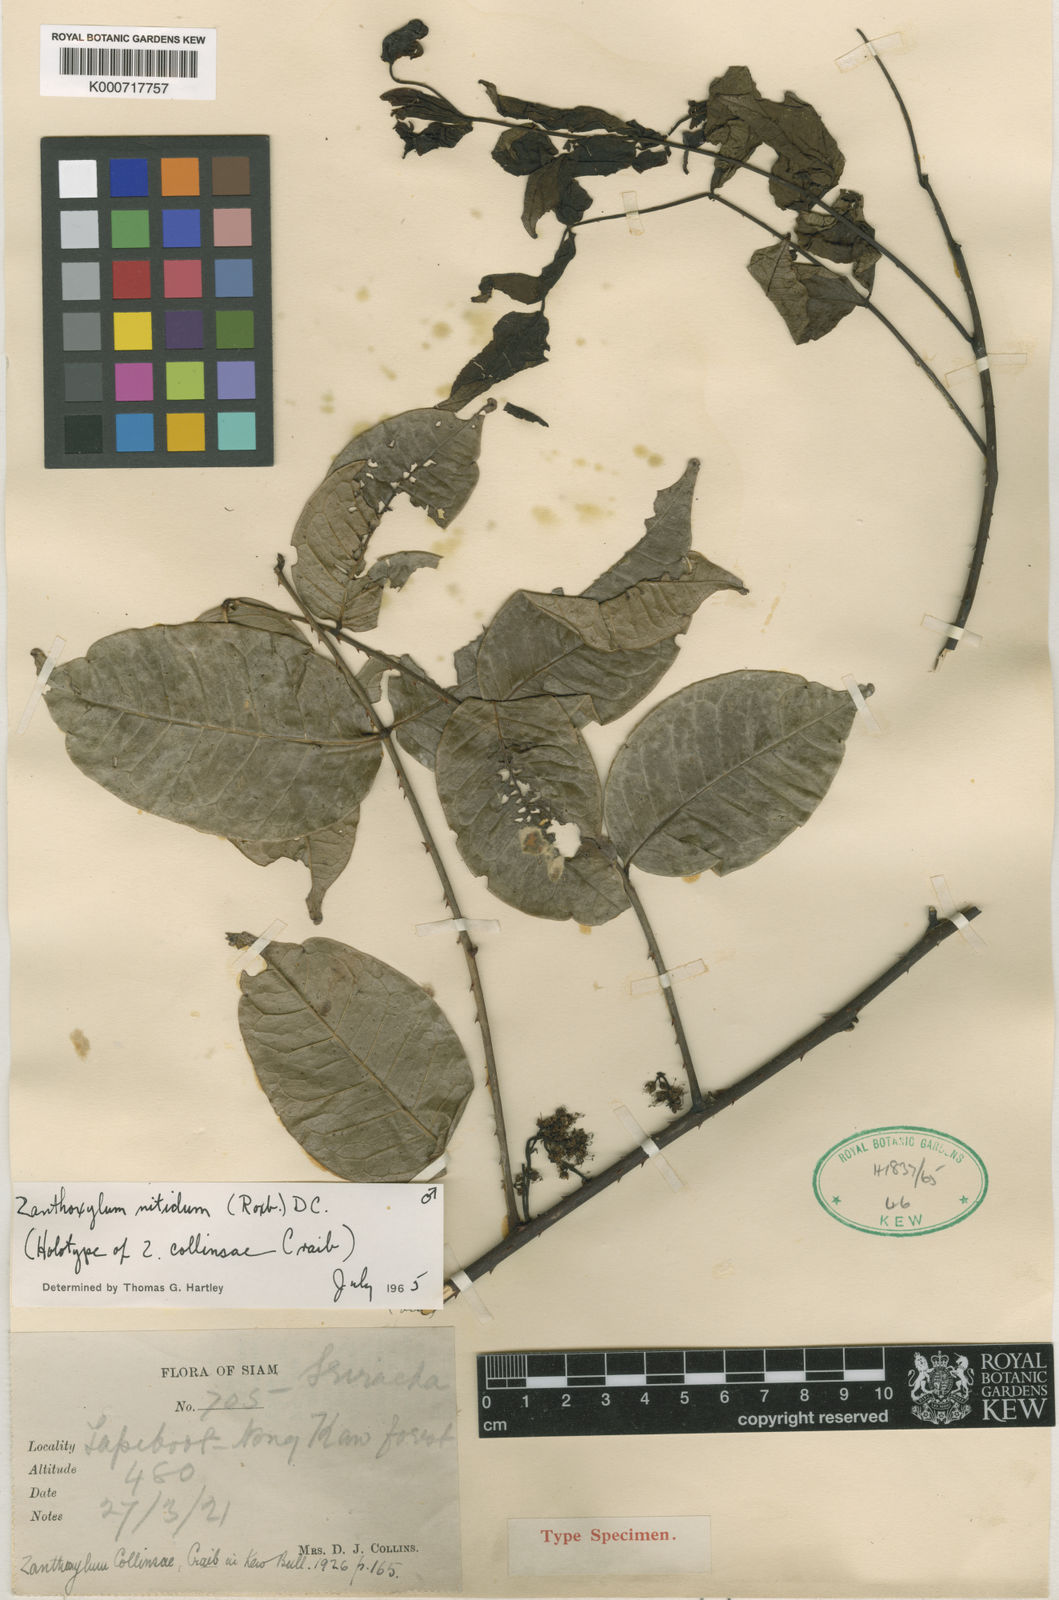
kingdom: Plantae
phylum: Tracheophyta
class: Magnoliopsida
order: Sapindales
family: Rutaceae
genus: Zanthoxylum
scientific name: Zanthoxylum nitidum
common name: Shiny-leaf prickly-ash
